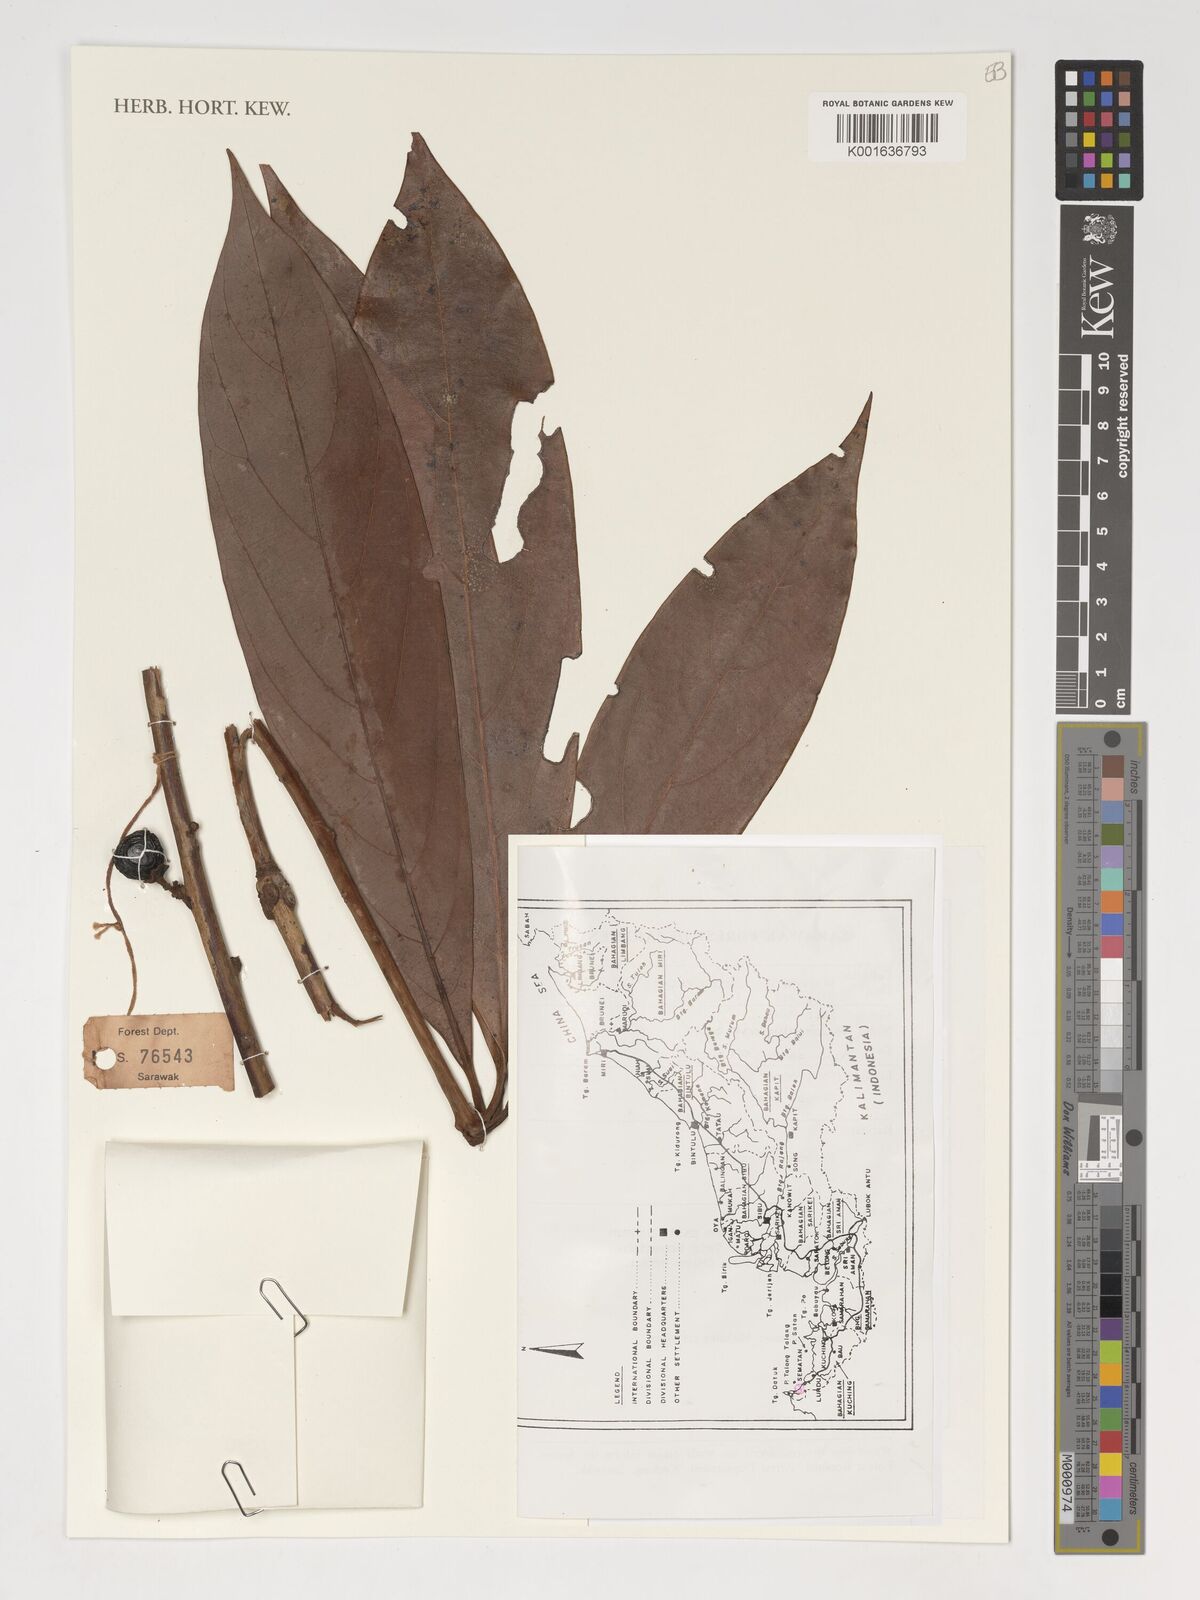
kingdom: Plantae
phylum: Tracheophyta
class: Magnoliopsida
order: Laurales
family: Lauraceae
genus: Actinodaphne
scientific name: Actinodaphne
